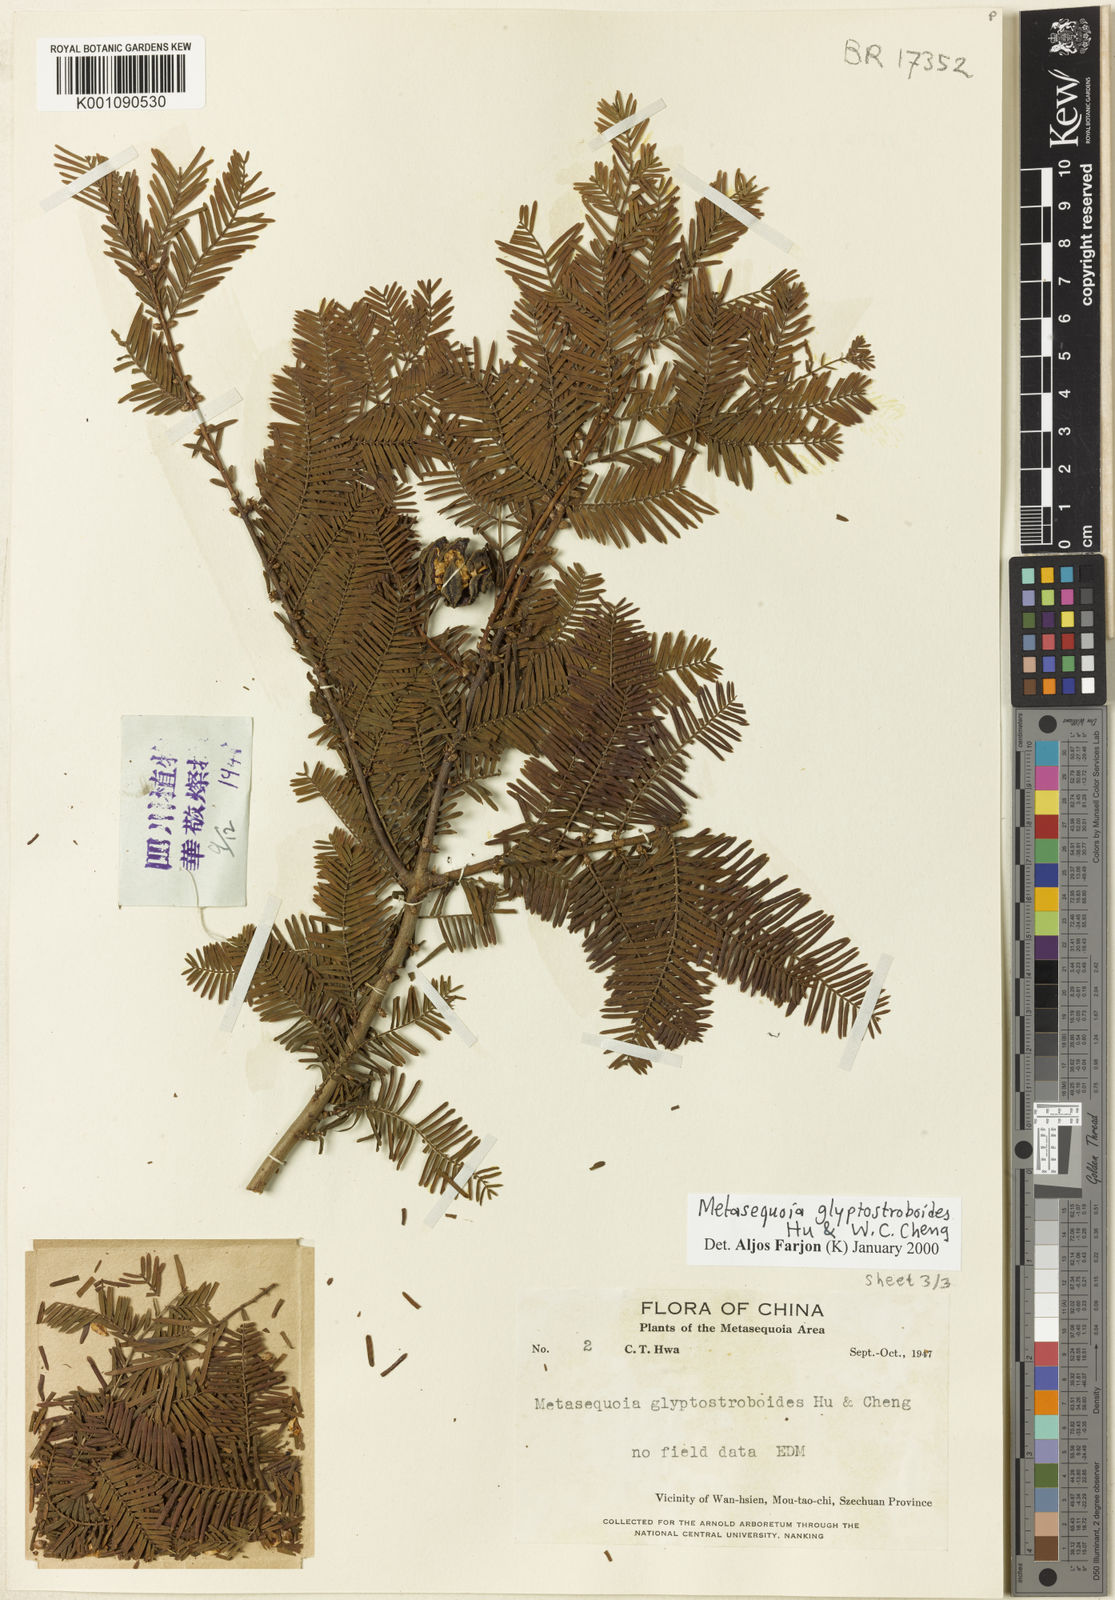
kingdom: Plantae
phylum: Tracheophyta
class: Pinopsida
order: Pinales
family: Cupressaceae
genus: Metasequoia
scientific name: Metasequoia glyptostroboides
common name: Dawn redwood
